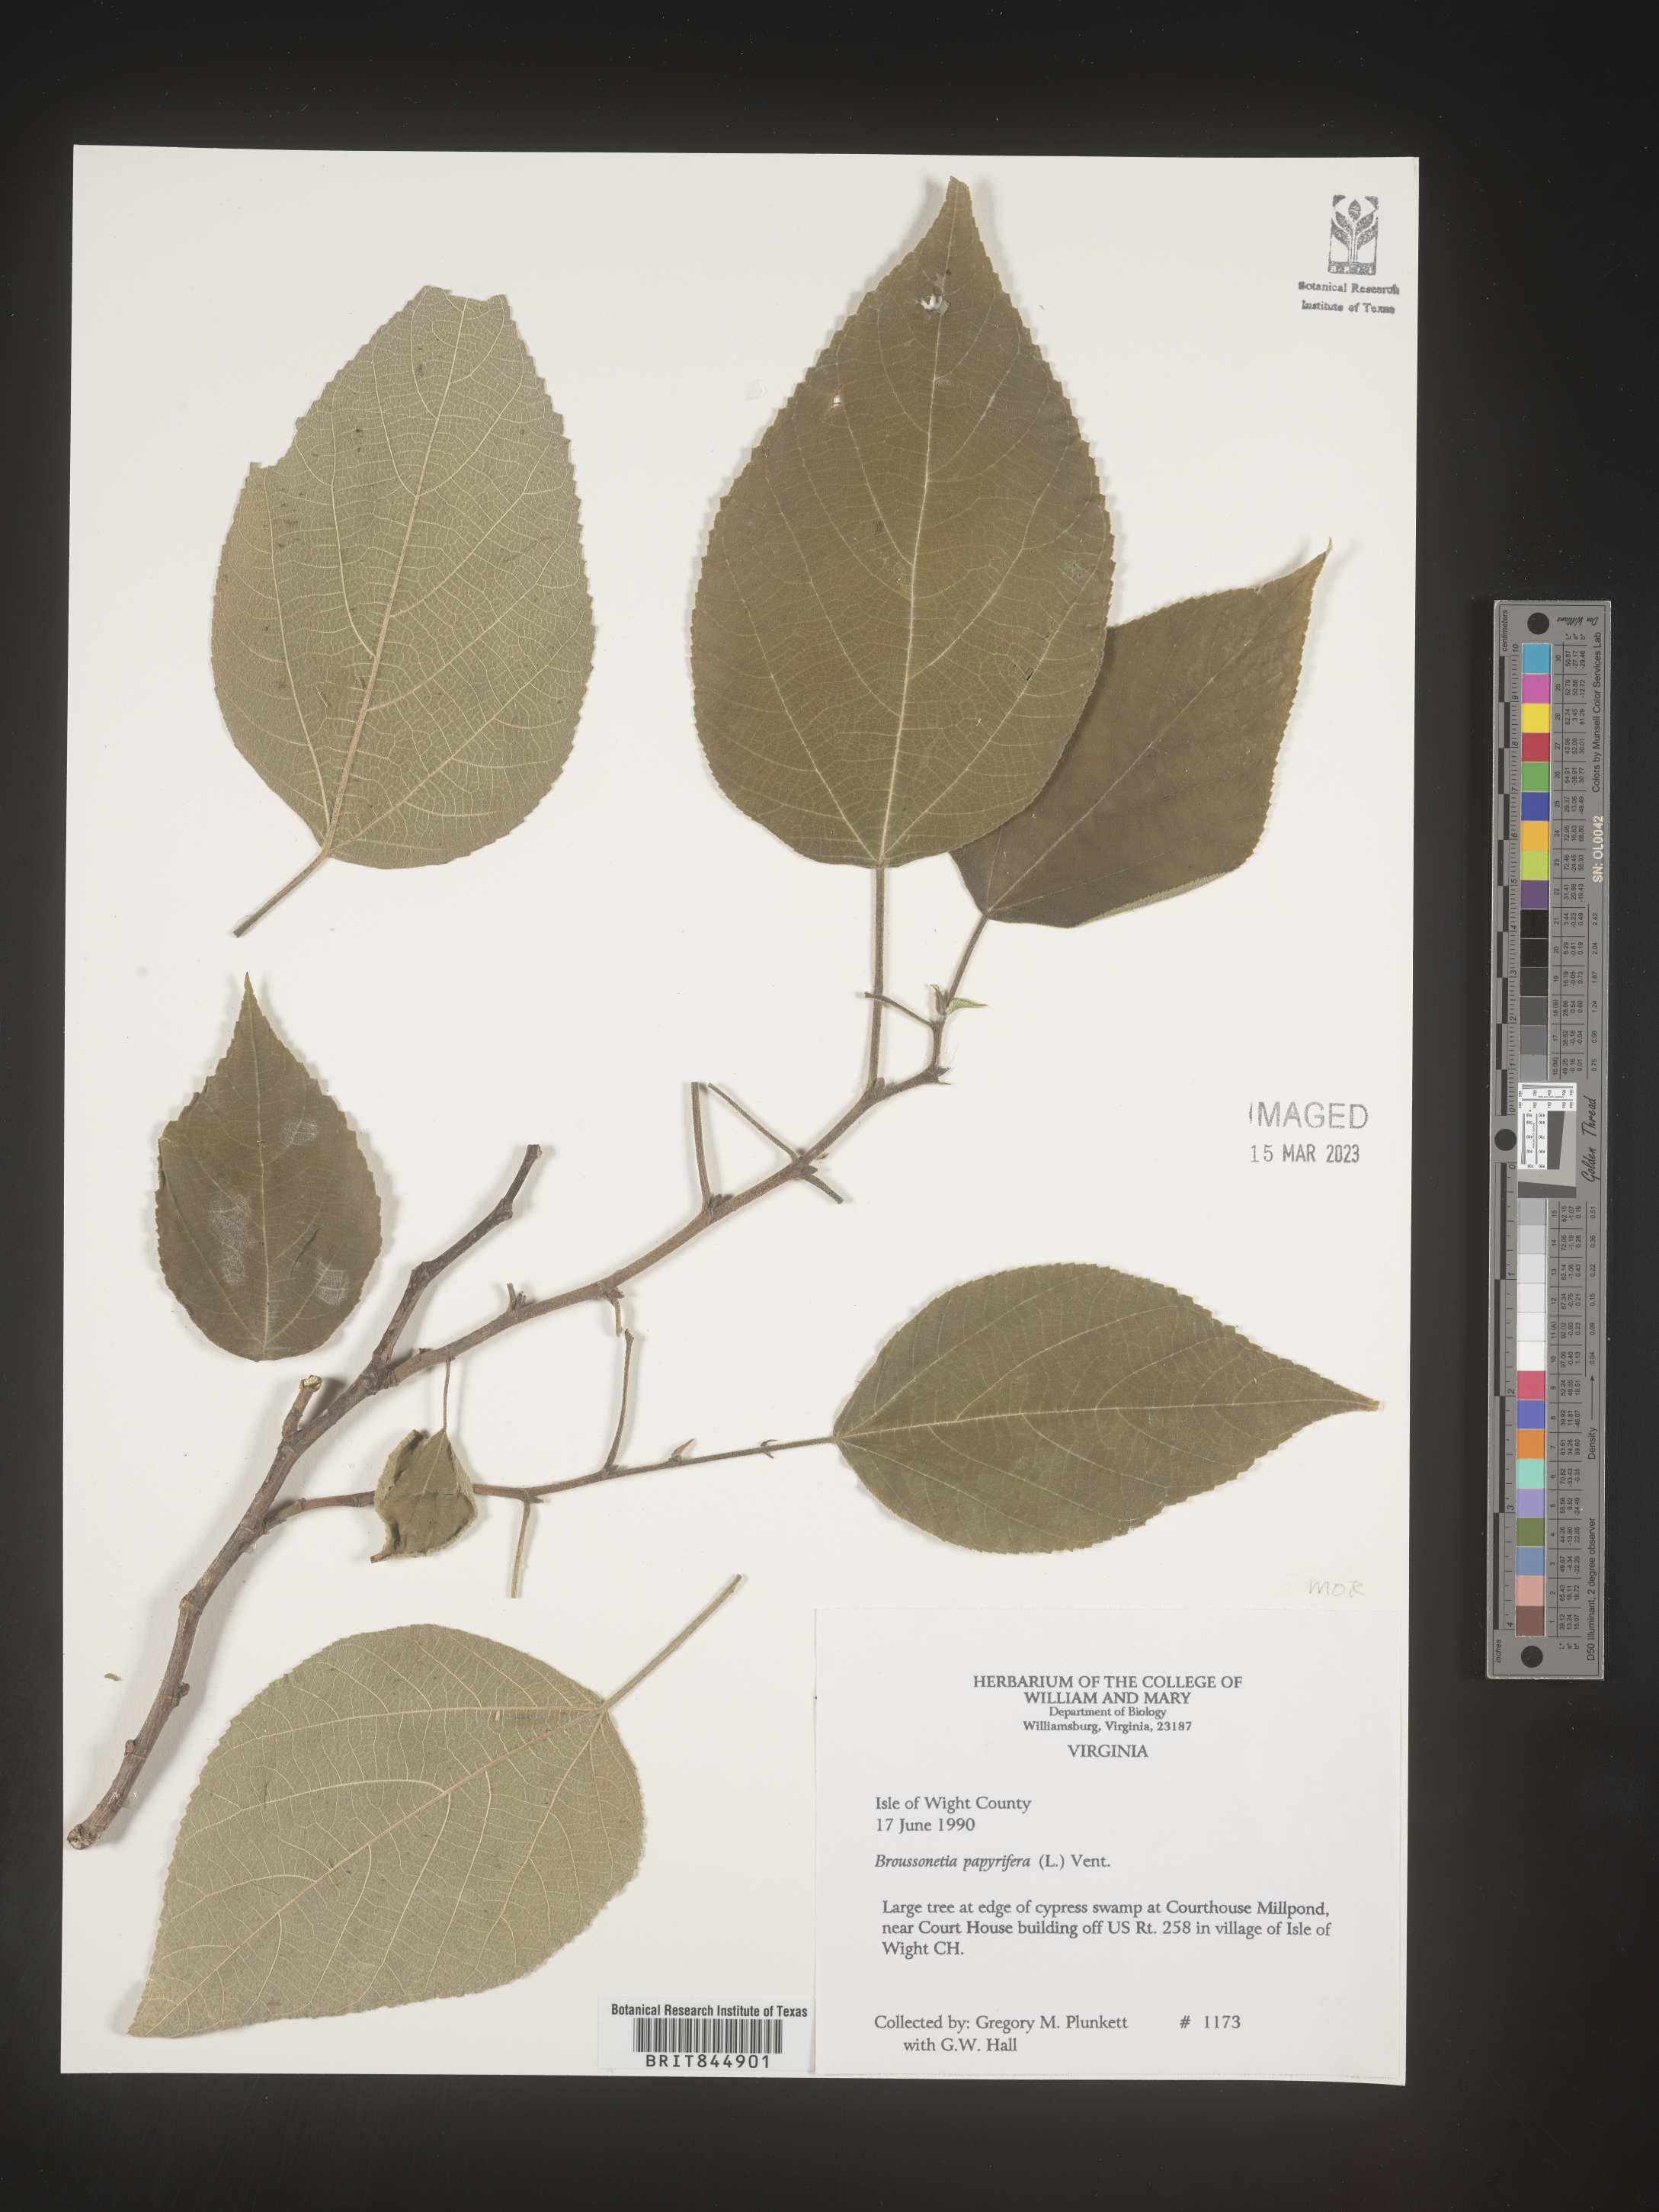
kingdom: Plantae
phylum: Tracheophyta
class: Magnoliopsida
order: Rosales
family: Moraceae
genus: Broussonetia
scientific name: Broussonetia
